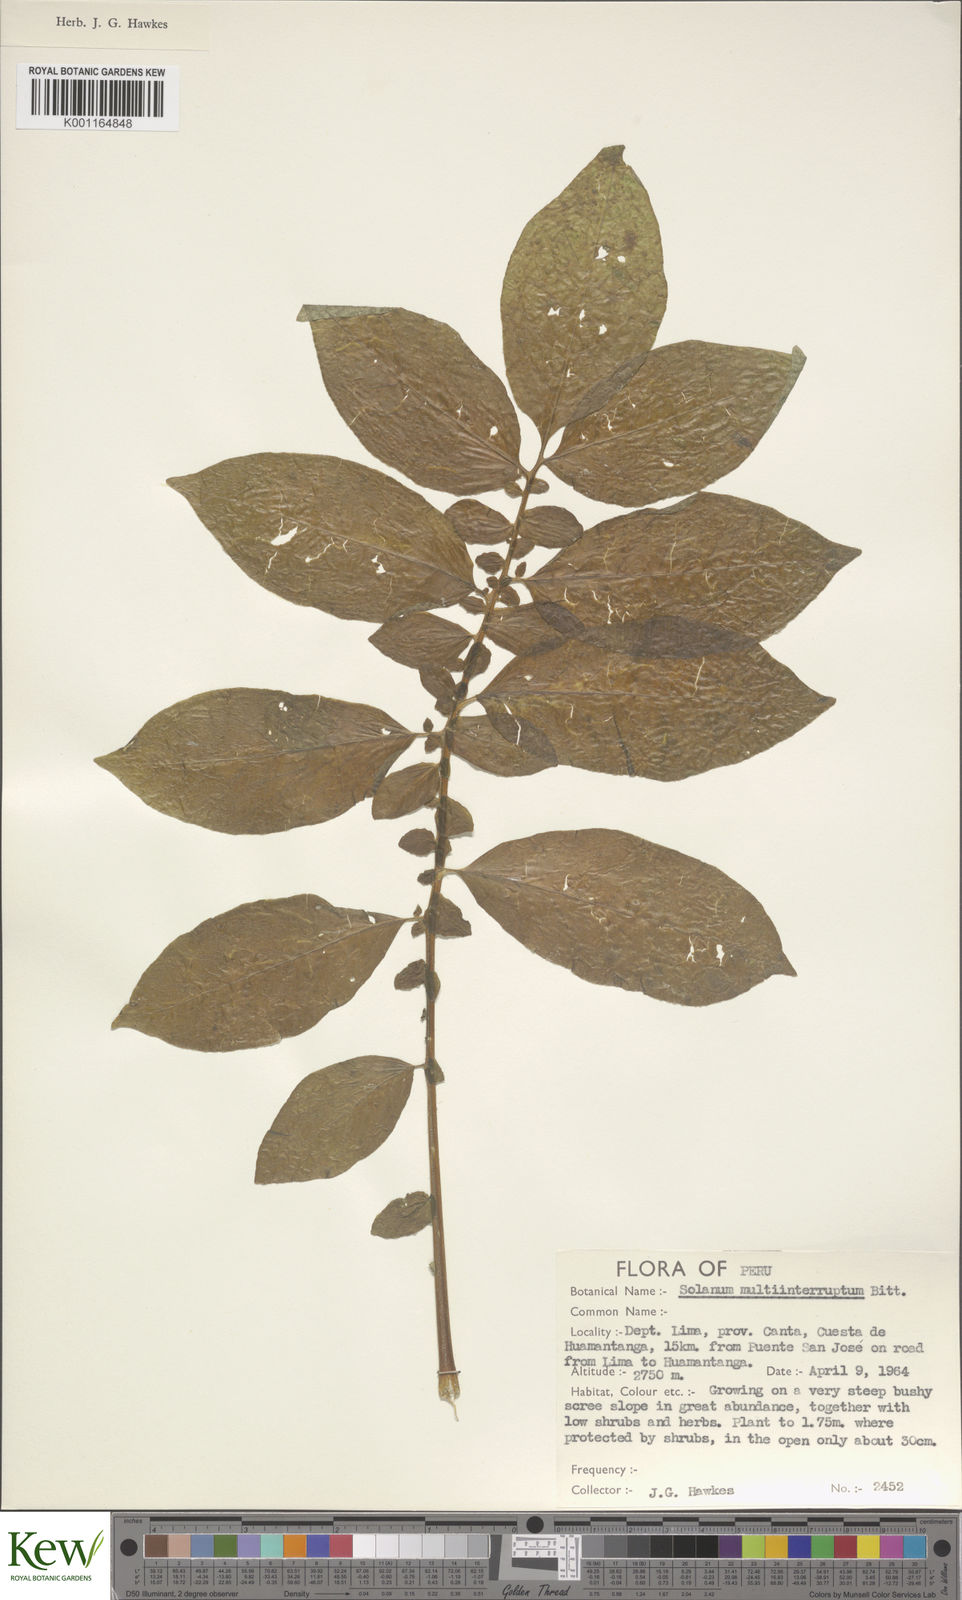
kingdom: Plantae
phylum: Tracheophyta
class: Magnoliopsida
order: Solanales
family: Solanaceae
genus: Solanum
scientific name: Solanum multiinterruptum
